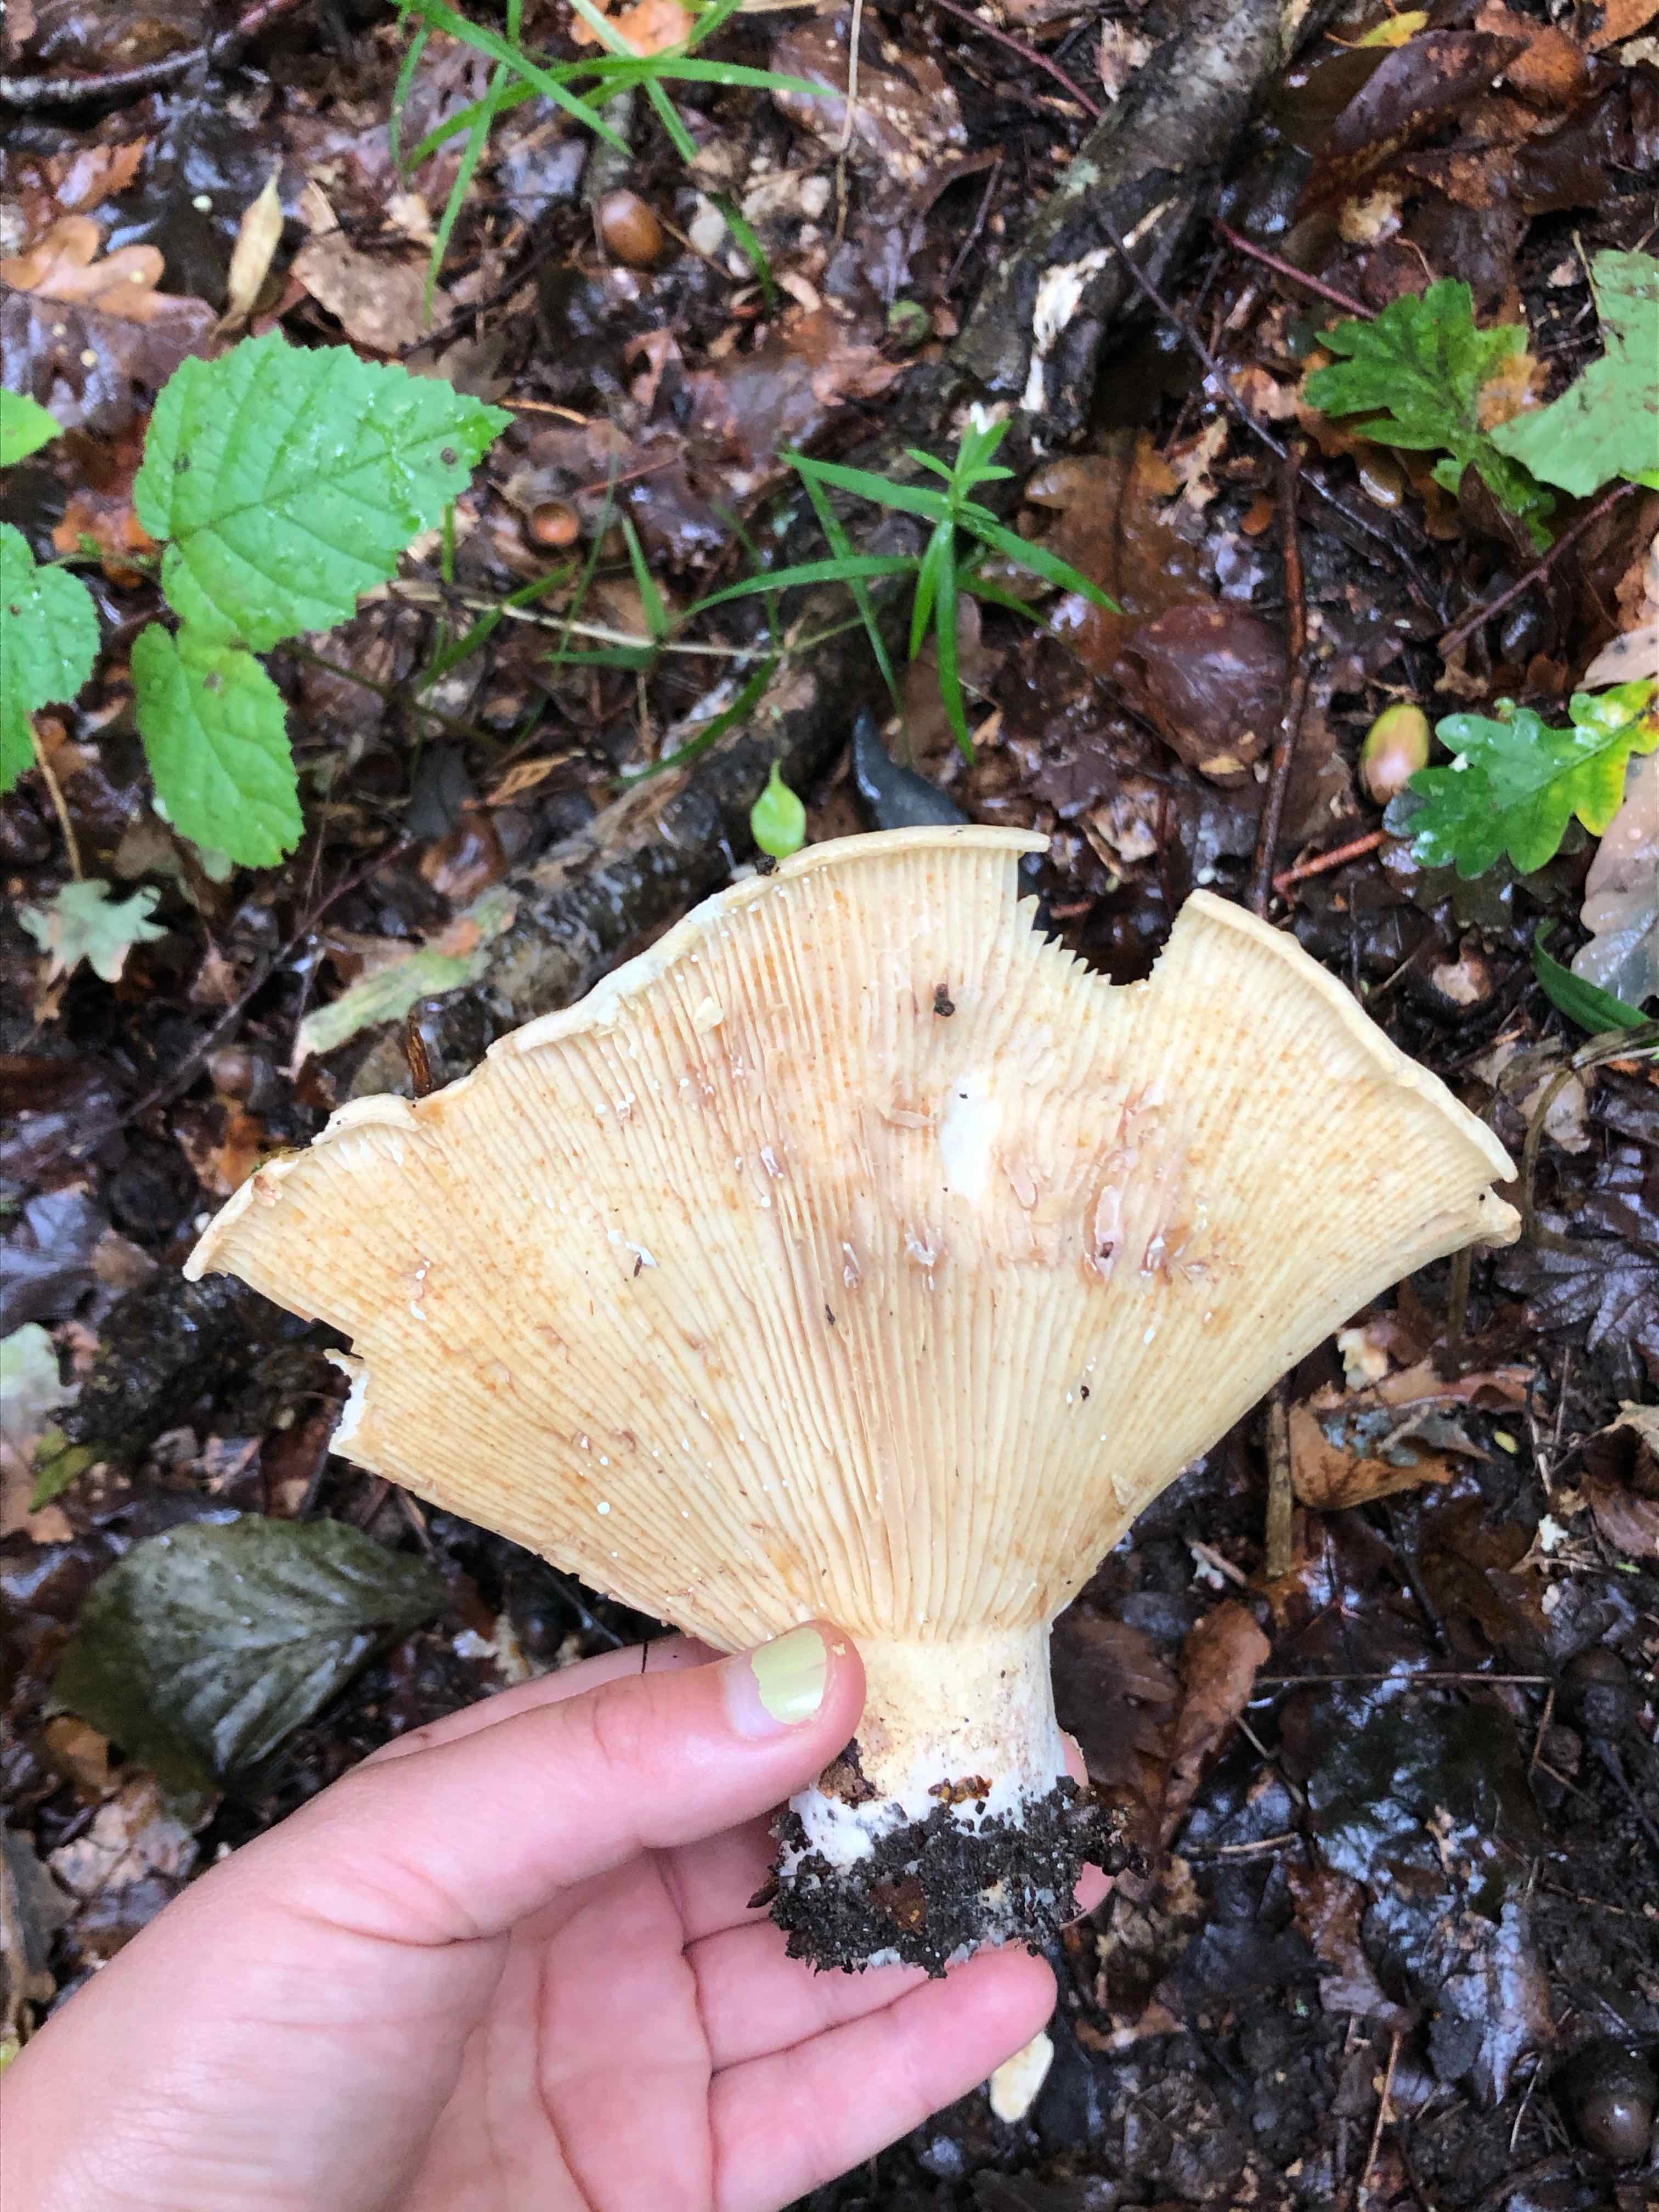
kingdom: Fungi
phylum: Basidiomycota
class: Agaricomycetes
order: Russulales
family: Russulaceae
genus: Lactifluus
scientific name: Lactifluus
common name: mælkehat
